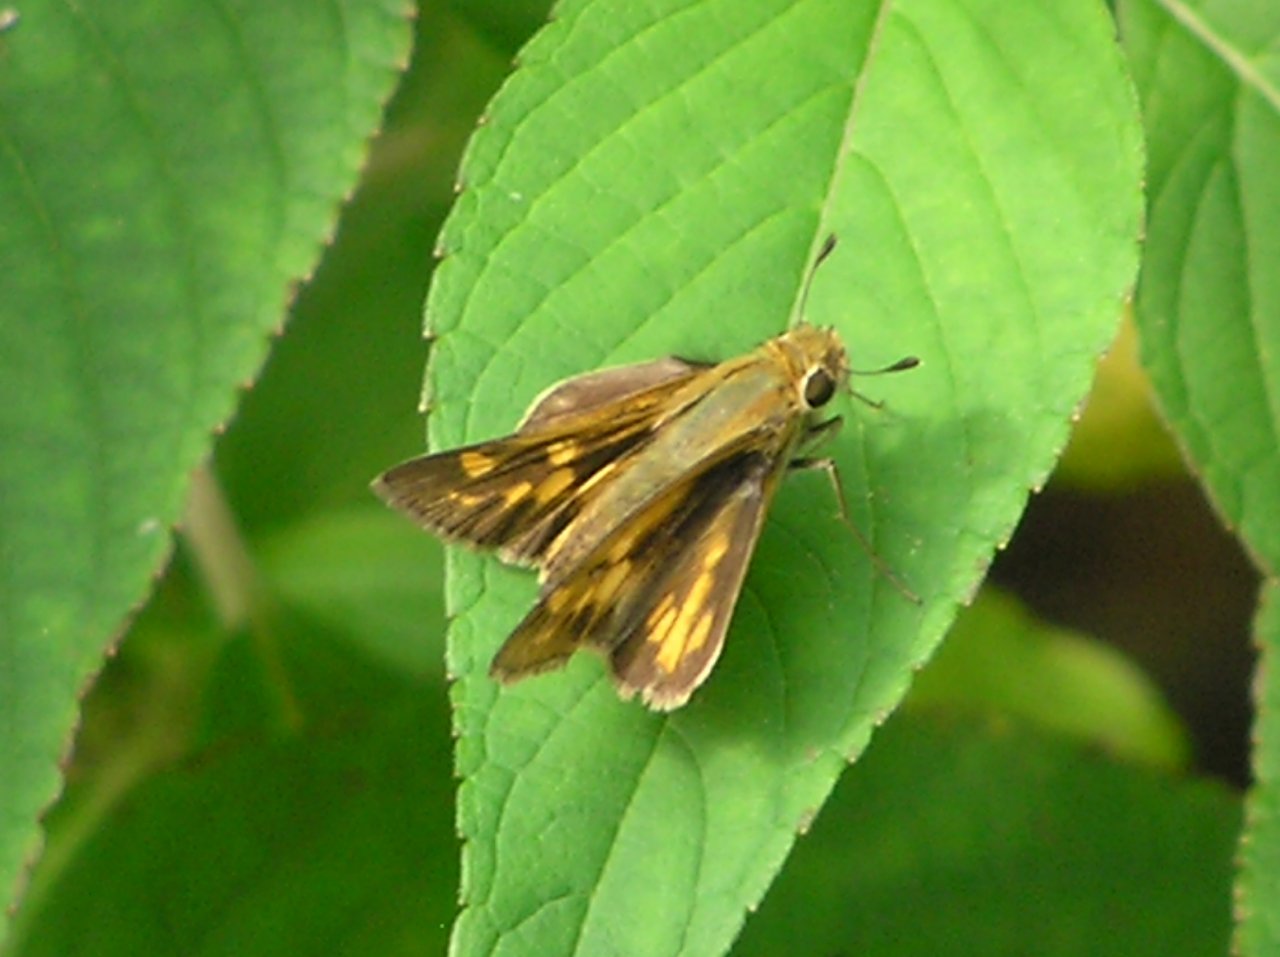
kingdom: Animalia
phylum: Arthropoda
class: Insecta
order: Lepidoptera
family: Hesperiidae
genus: Hylephila
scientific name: Hylephila phyleus
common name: Fiery Skipper
